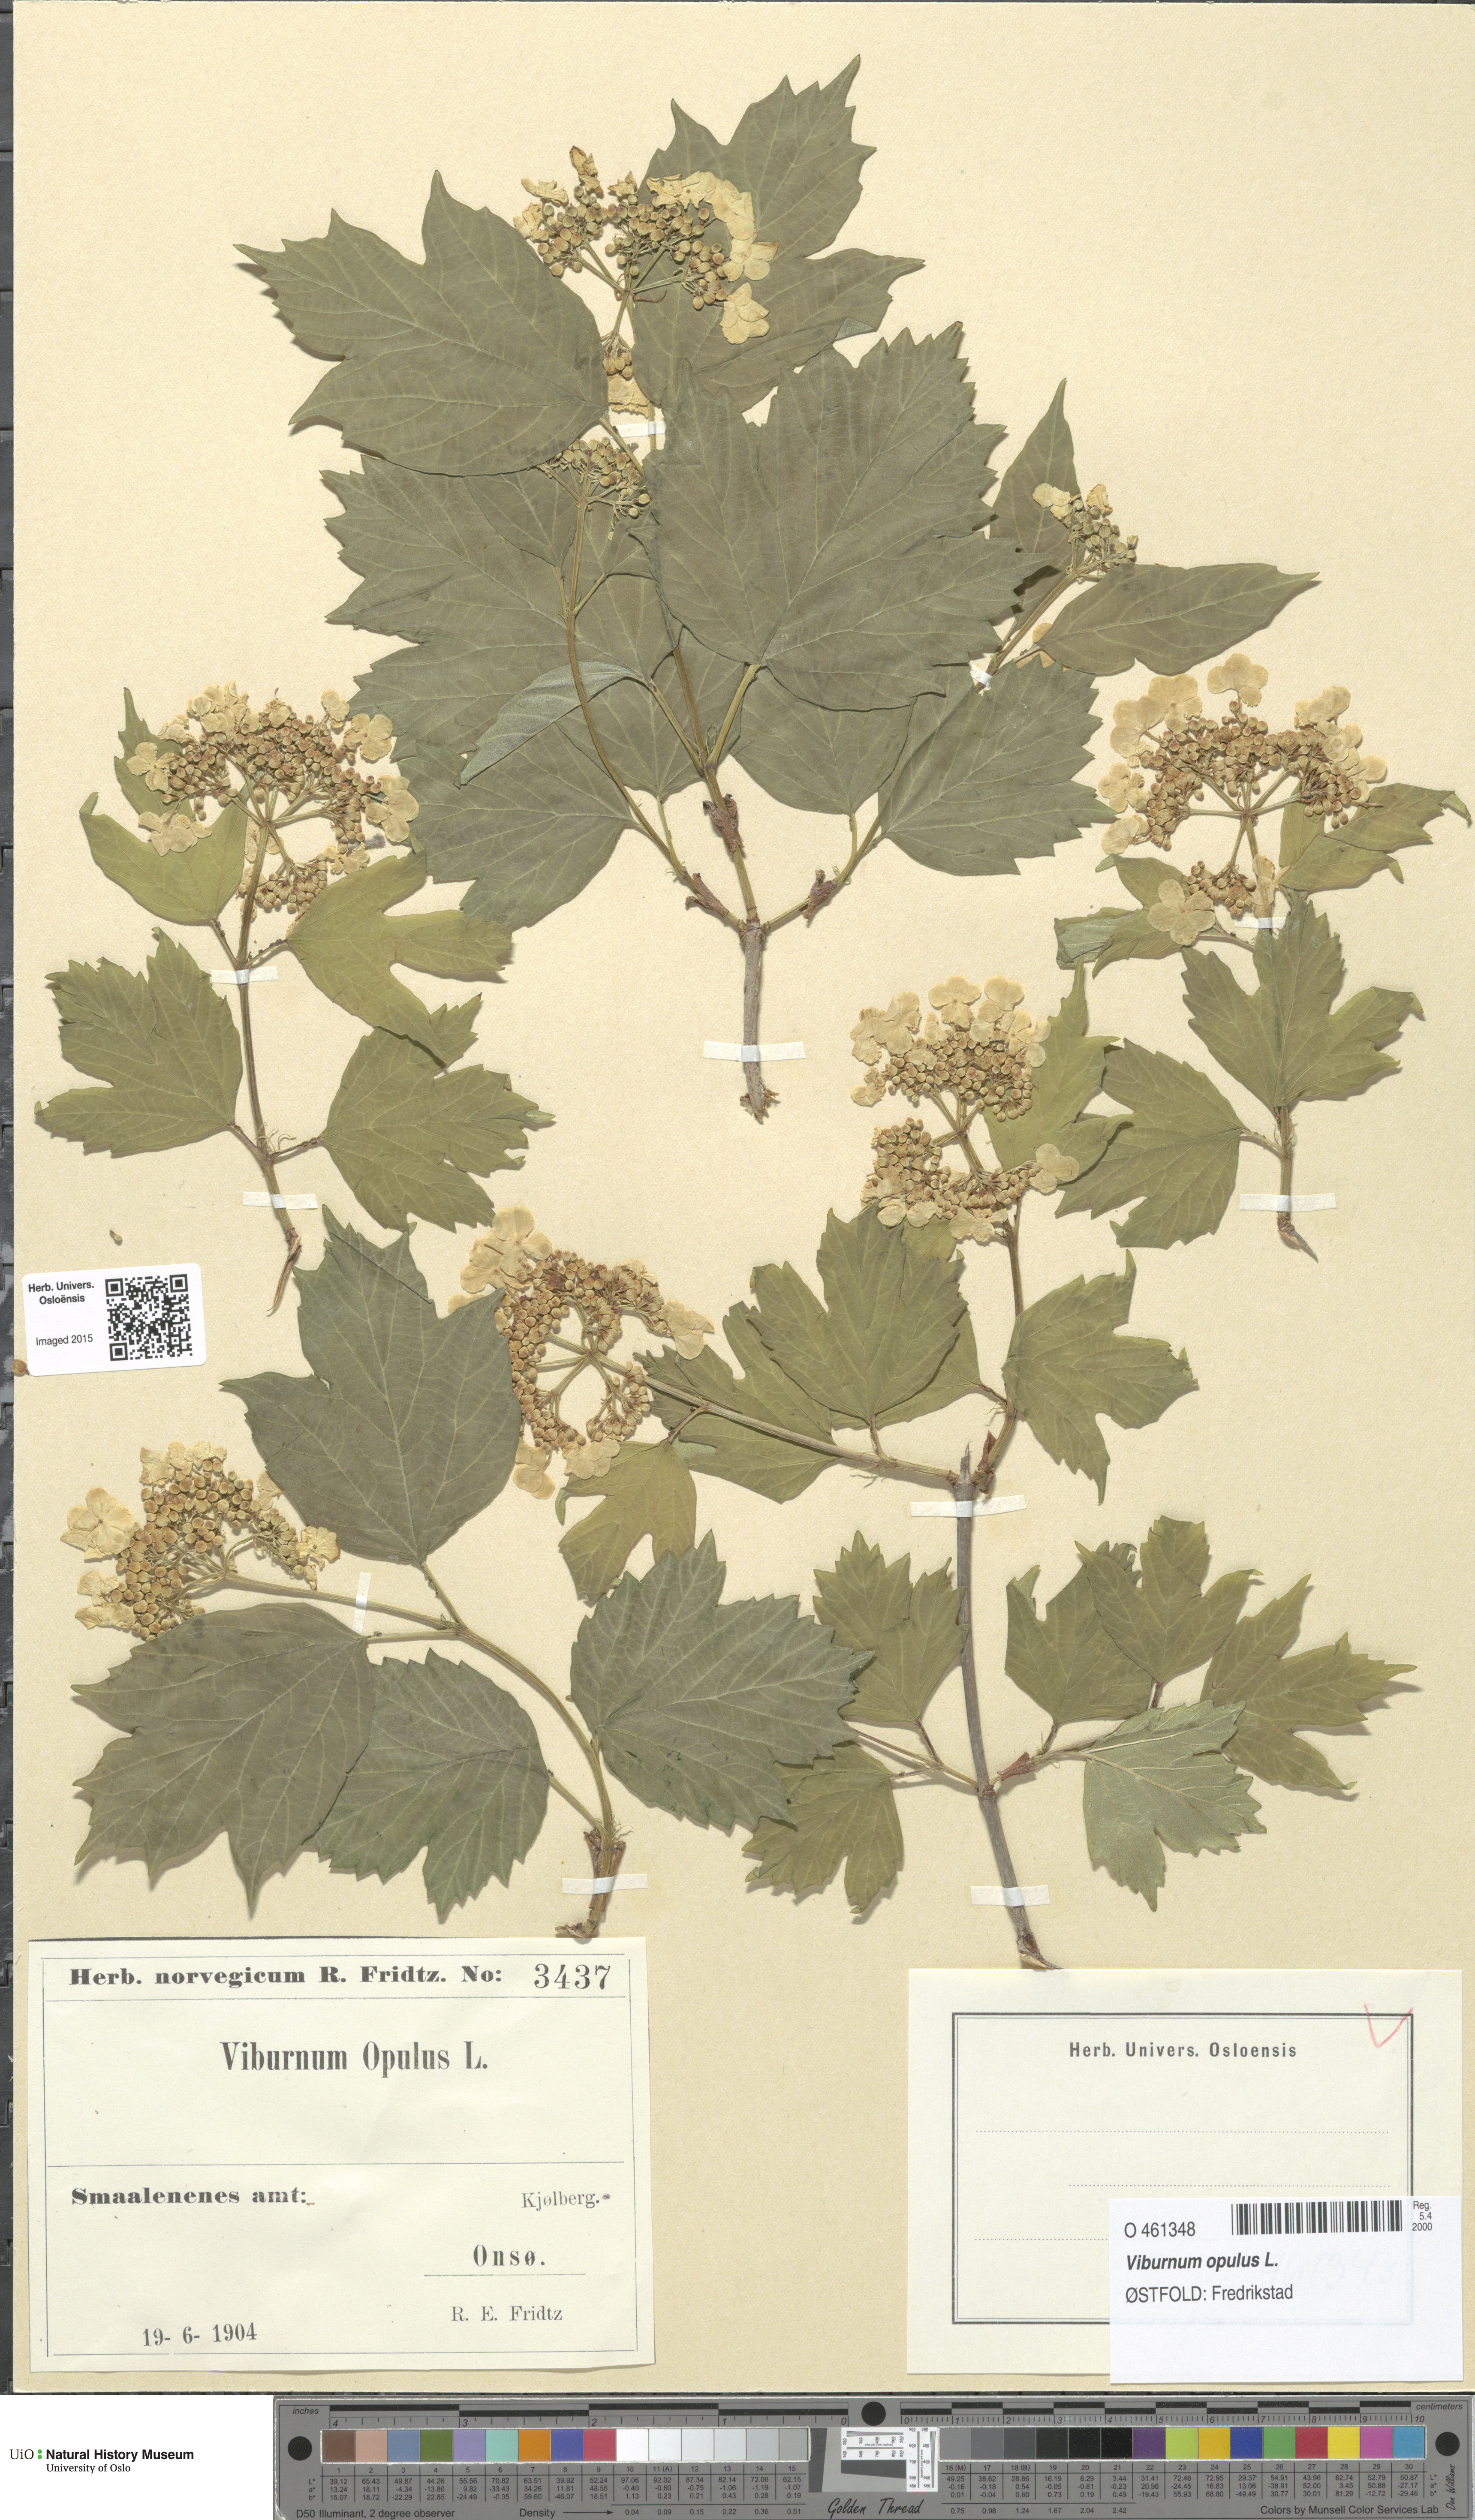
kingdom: Plantae
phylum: Tracheophyta
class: Magnoliopsida
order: Dipsacales
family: Viburnaceae
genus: Viburnum
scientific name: Viburnum opulus
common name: Guelder-rose
